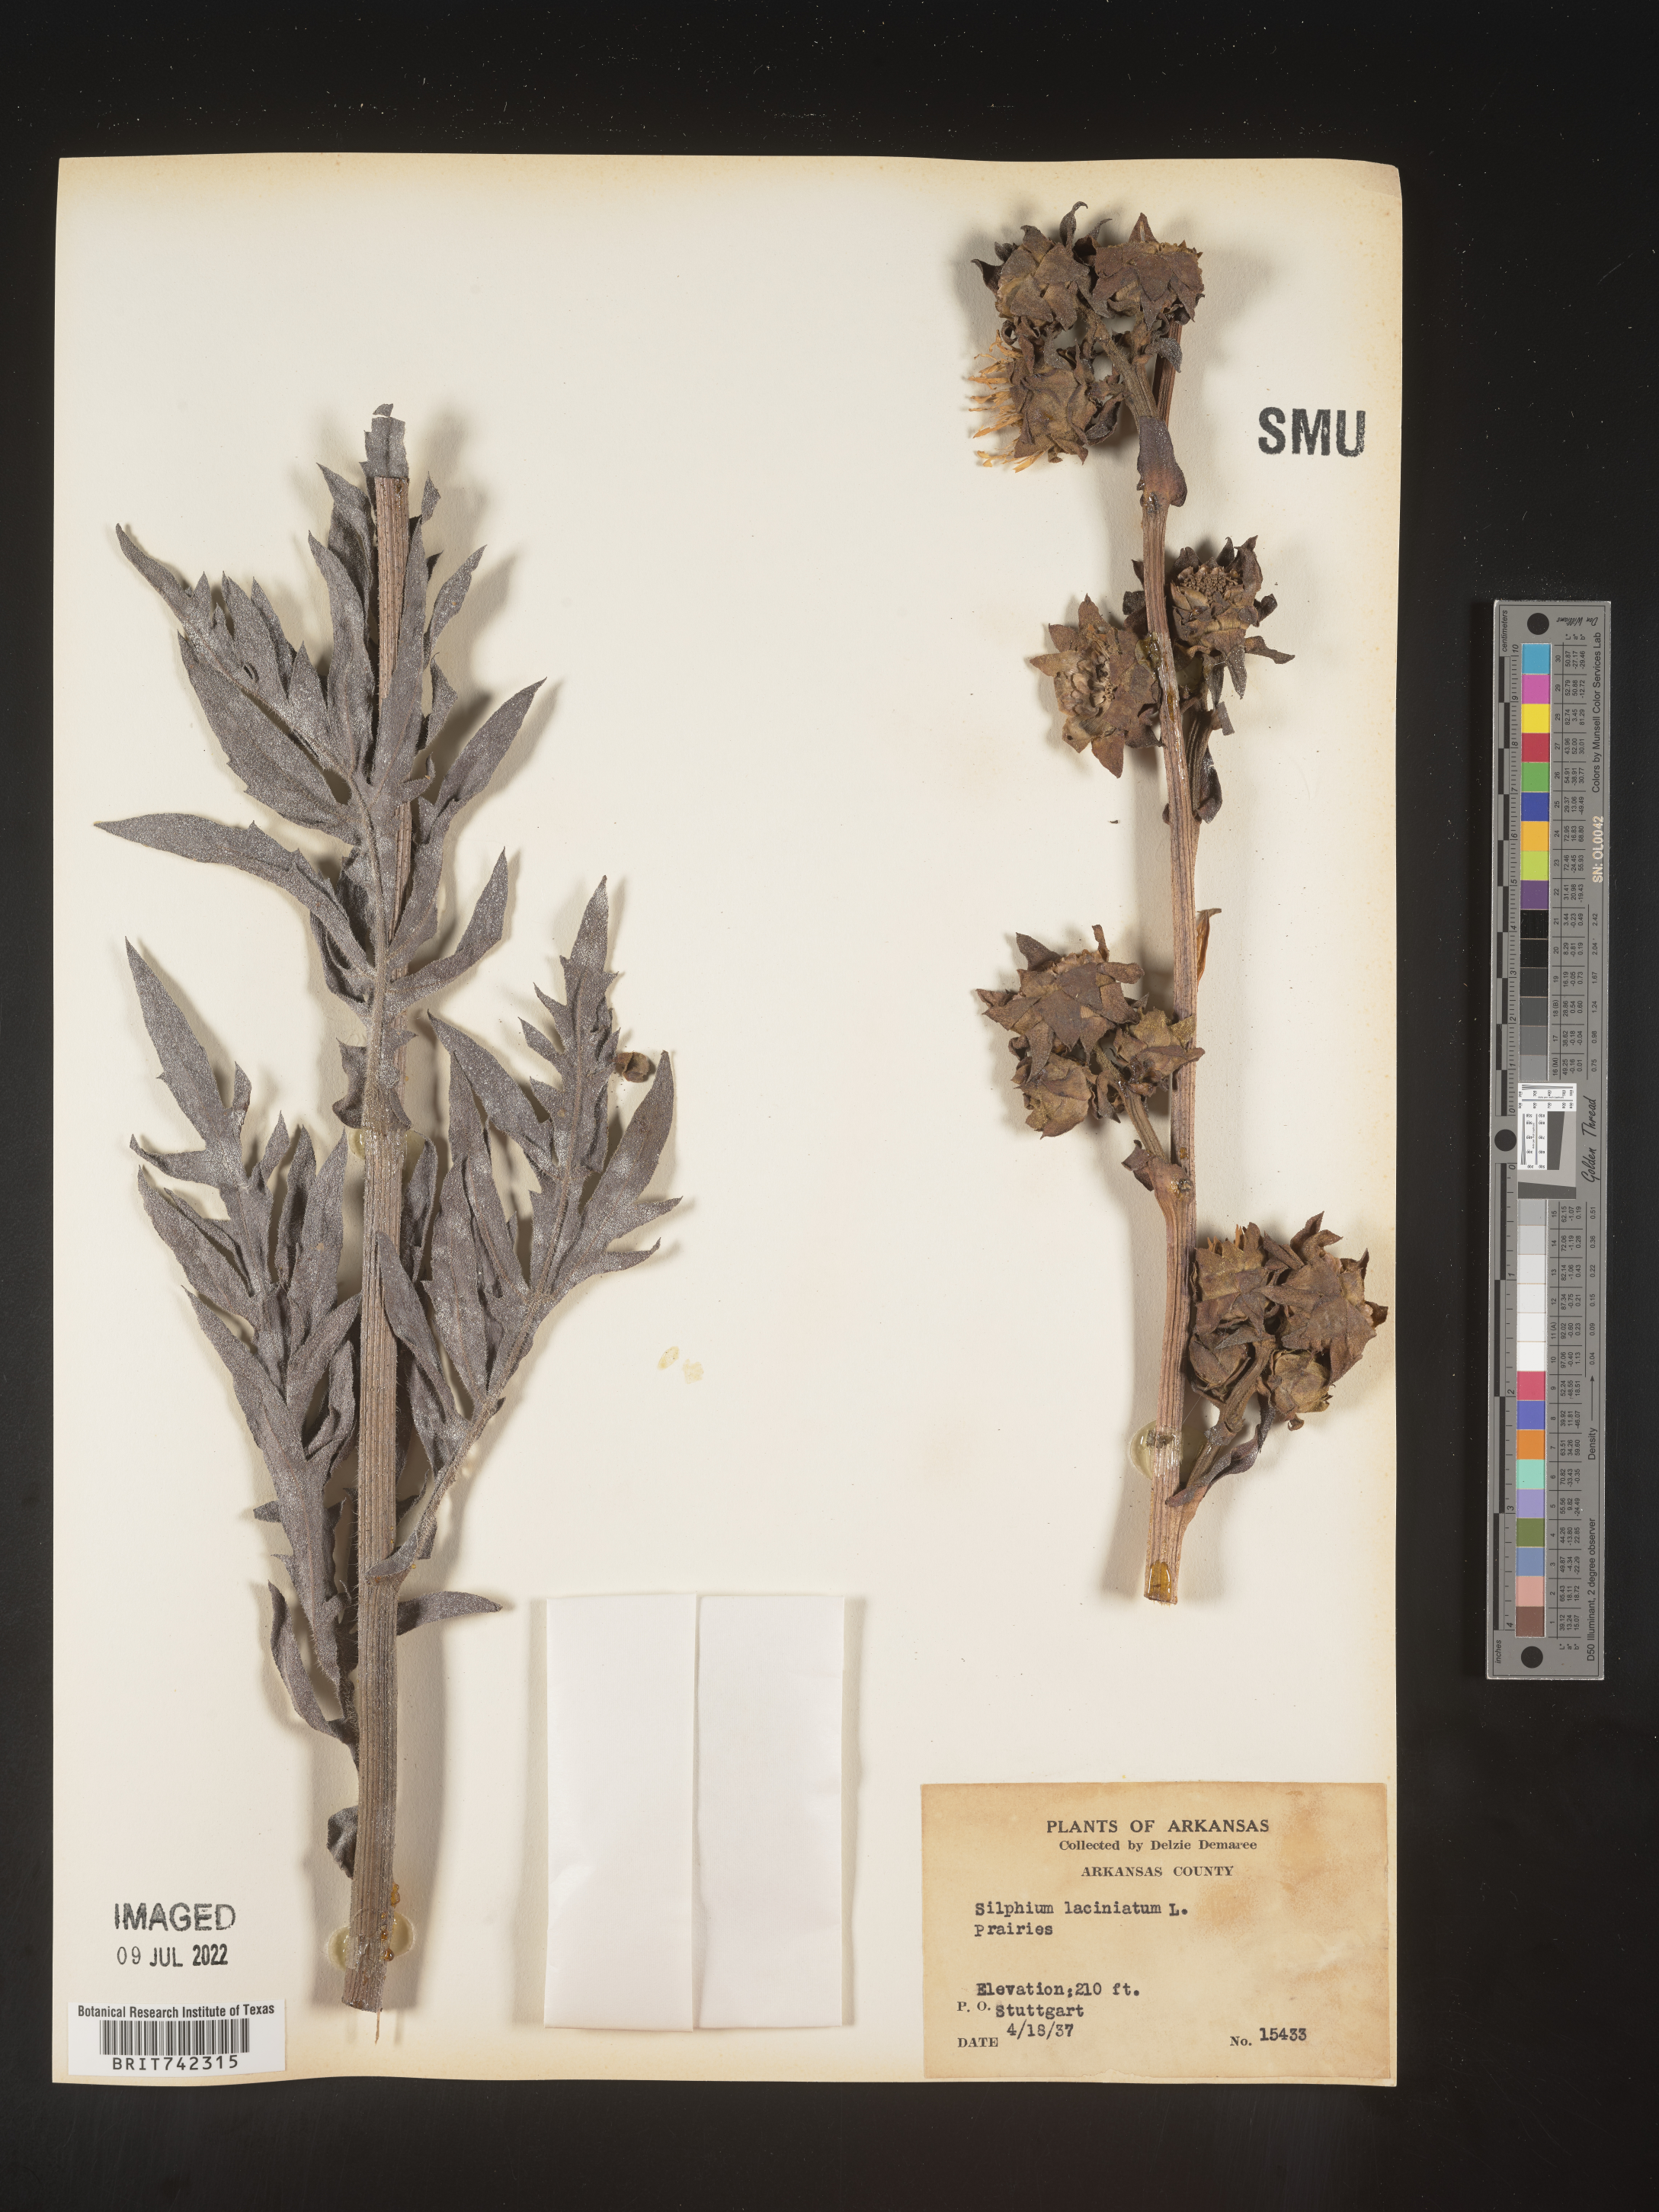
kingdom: Plantae
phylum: Tracheophyta
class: Magnoliopsida
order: Asterales
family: Asteraceae
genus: Silphium
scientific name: Silphium laciniatum
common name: Polarplant
